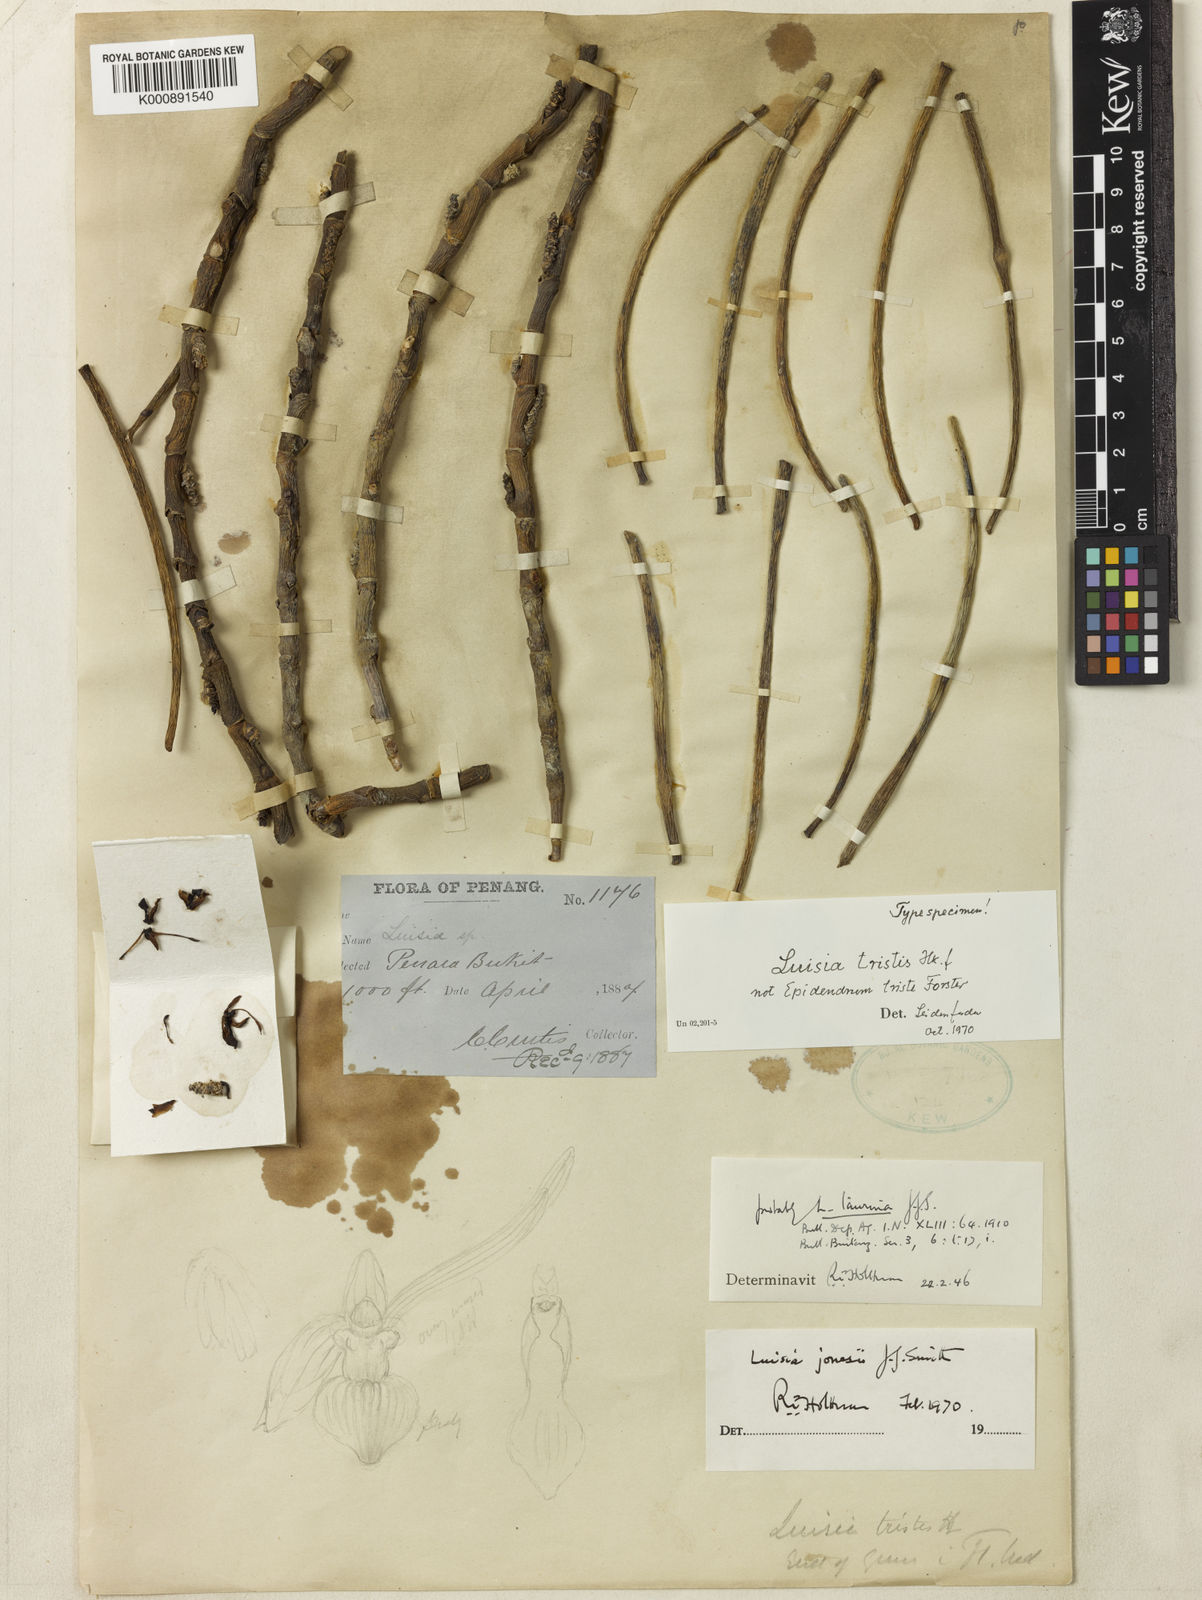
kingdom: Plantae
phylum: Tracheophyta
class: Liliopsida
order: Asparagales
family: Orchidaceae
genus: Luisia
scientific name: Luisia curtisii
